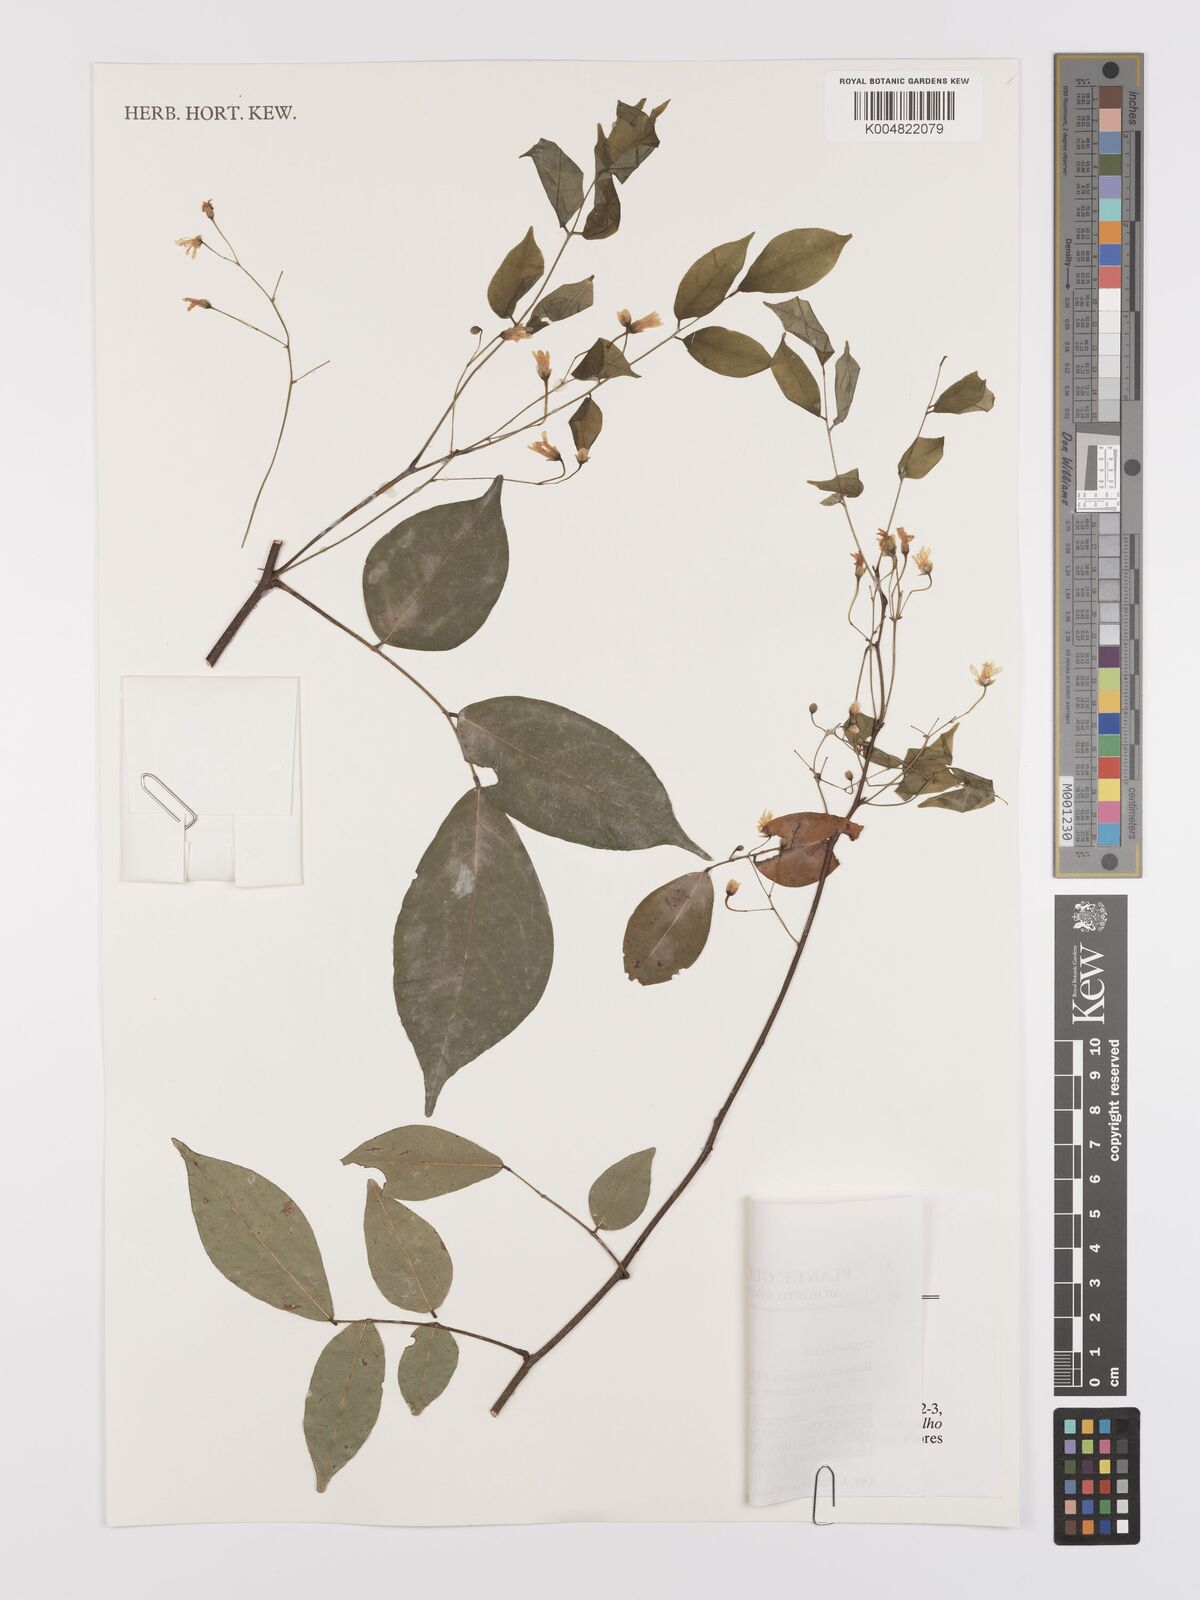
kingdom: Plantae
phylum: Tracheophyta
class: Magnoliopsida
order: Oxalidales
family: Connaraceae
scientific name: Connaraceae
